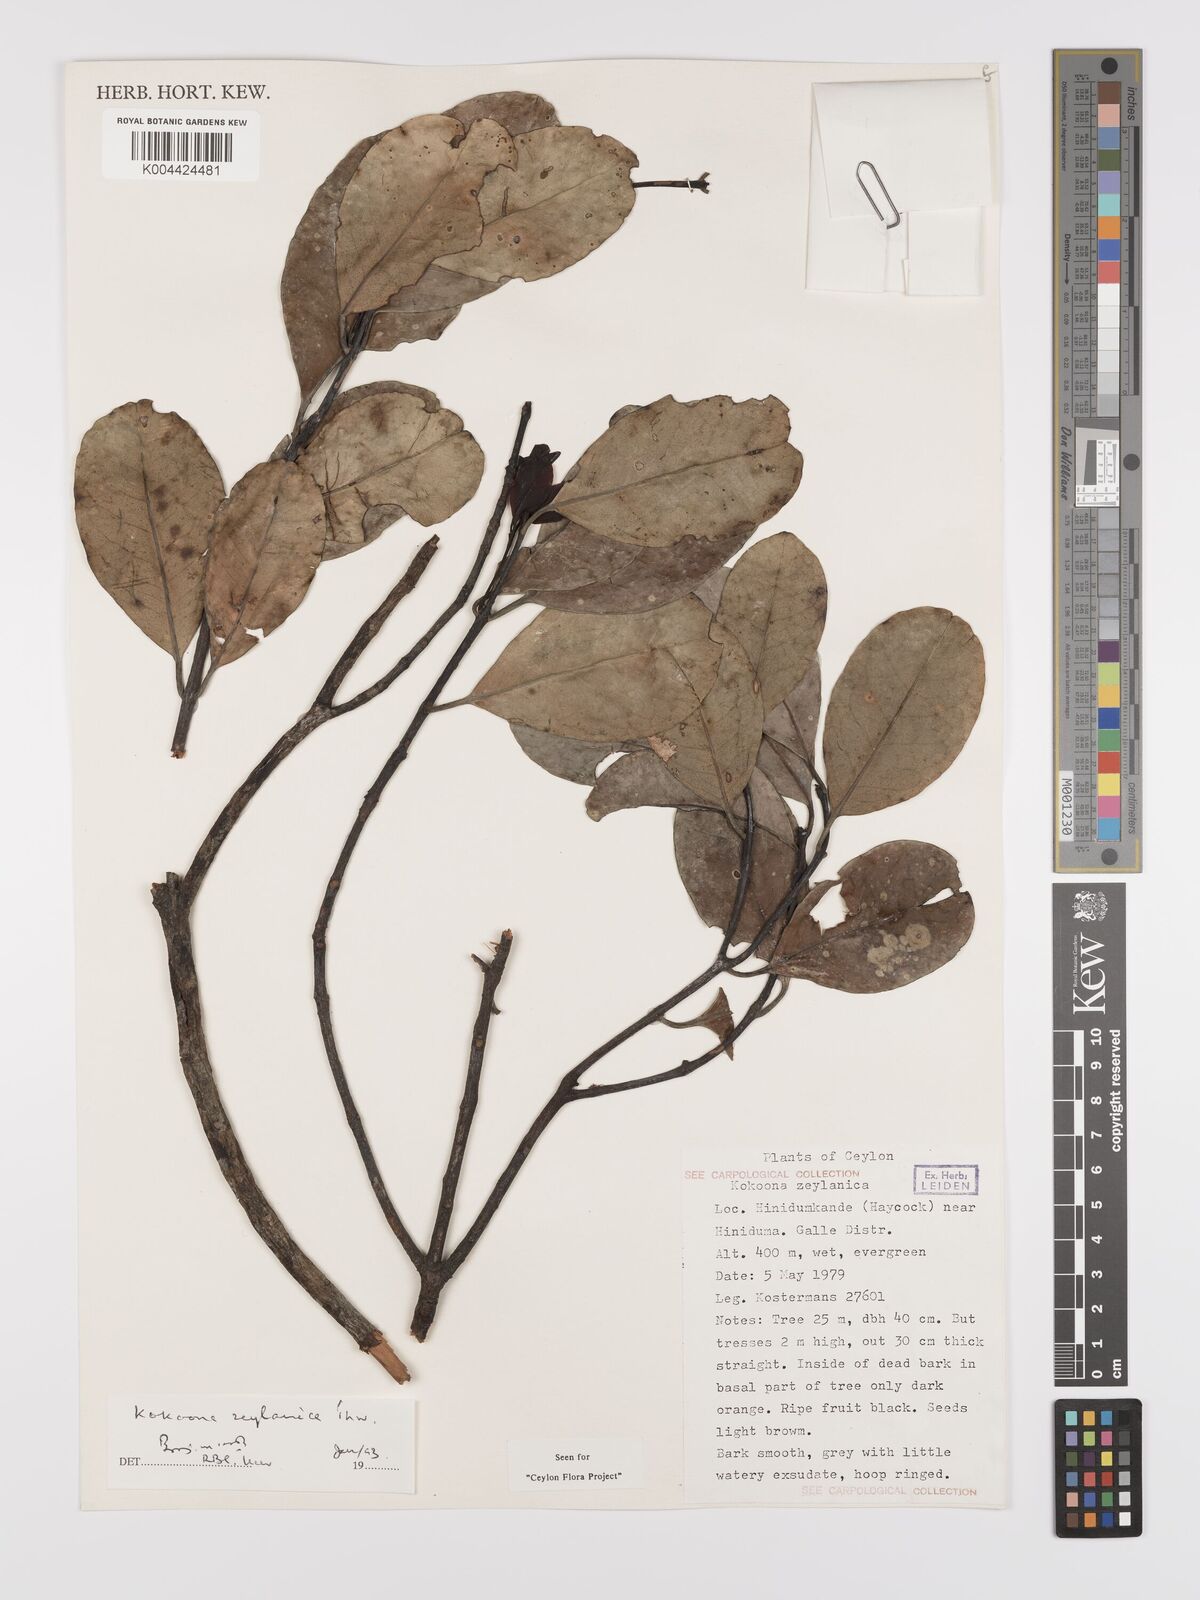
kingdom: Plantae
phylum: Tracheophyta
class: Magnoliopsida
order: Celastrales
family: Celastraceae
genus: Kokoona
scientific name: Kokoona zeylanica
